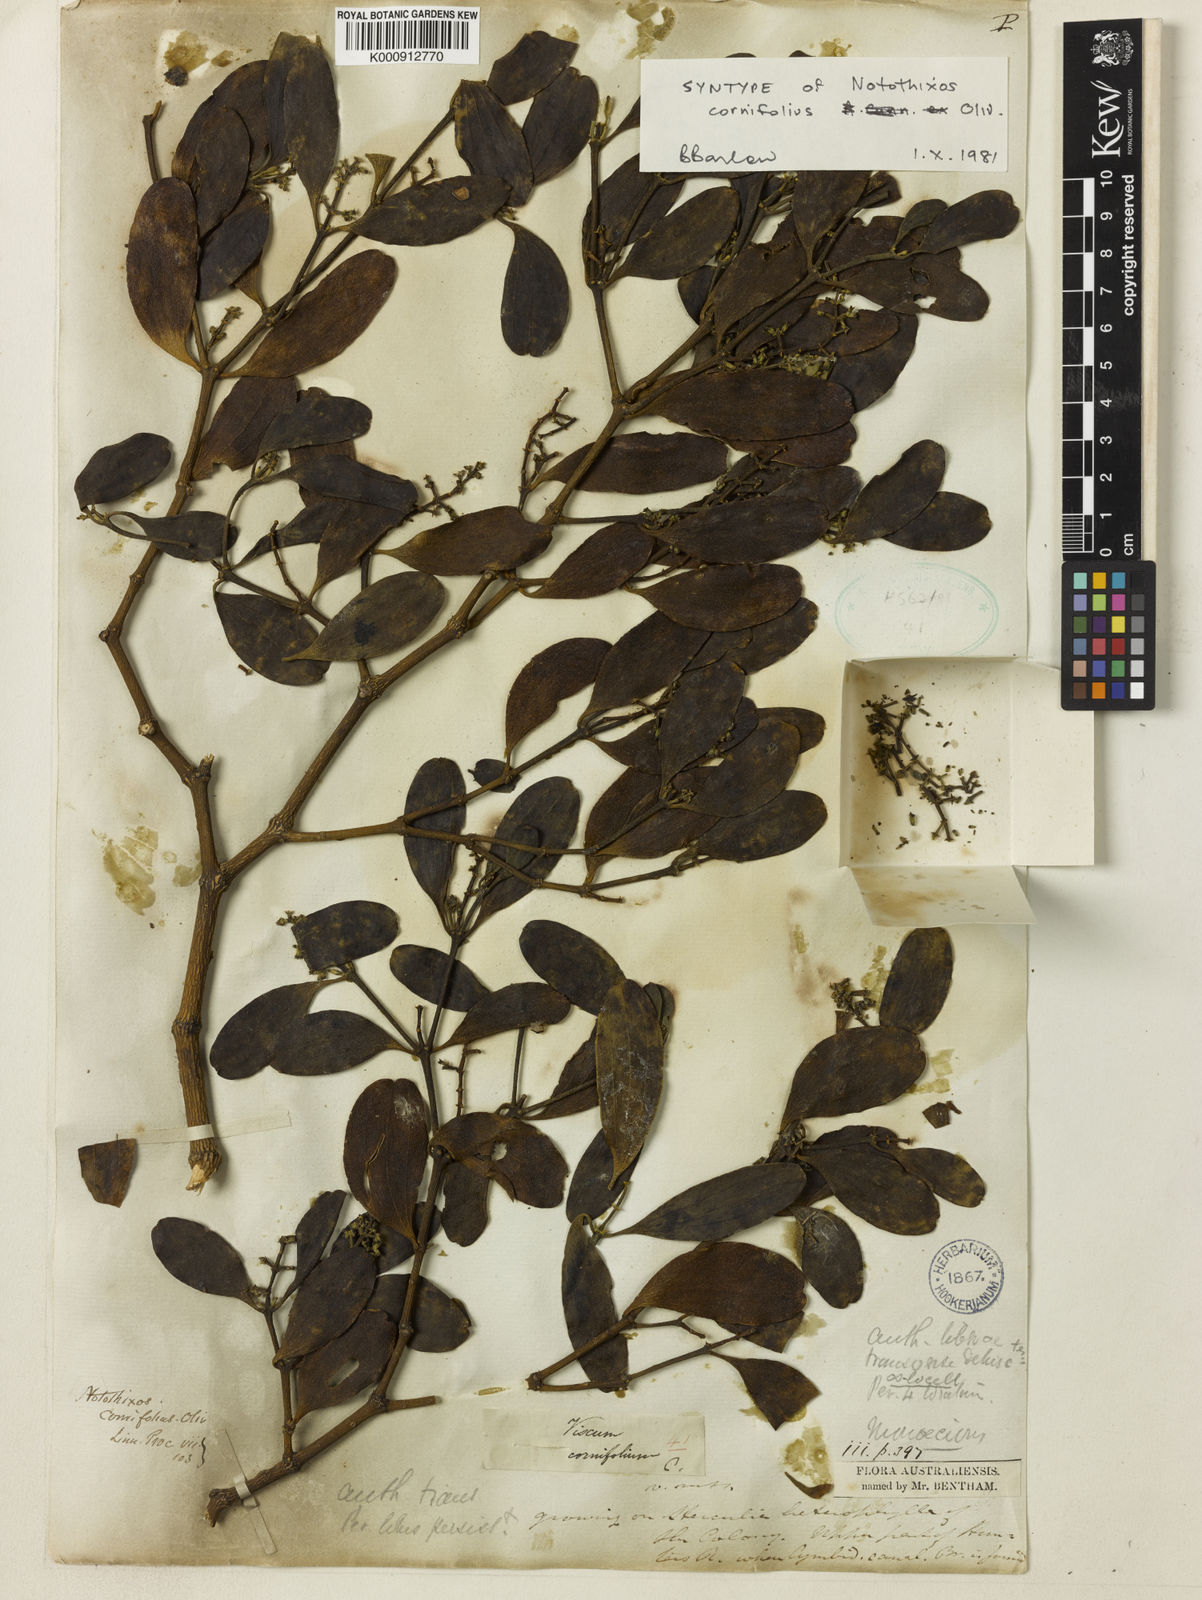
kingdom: Plantae
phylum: Tracheophyta
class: Magnoliopsida
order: Santalales
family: Viscaceae
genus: Notothixos
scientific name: Notothixos cornifolius
